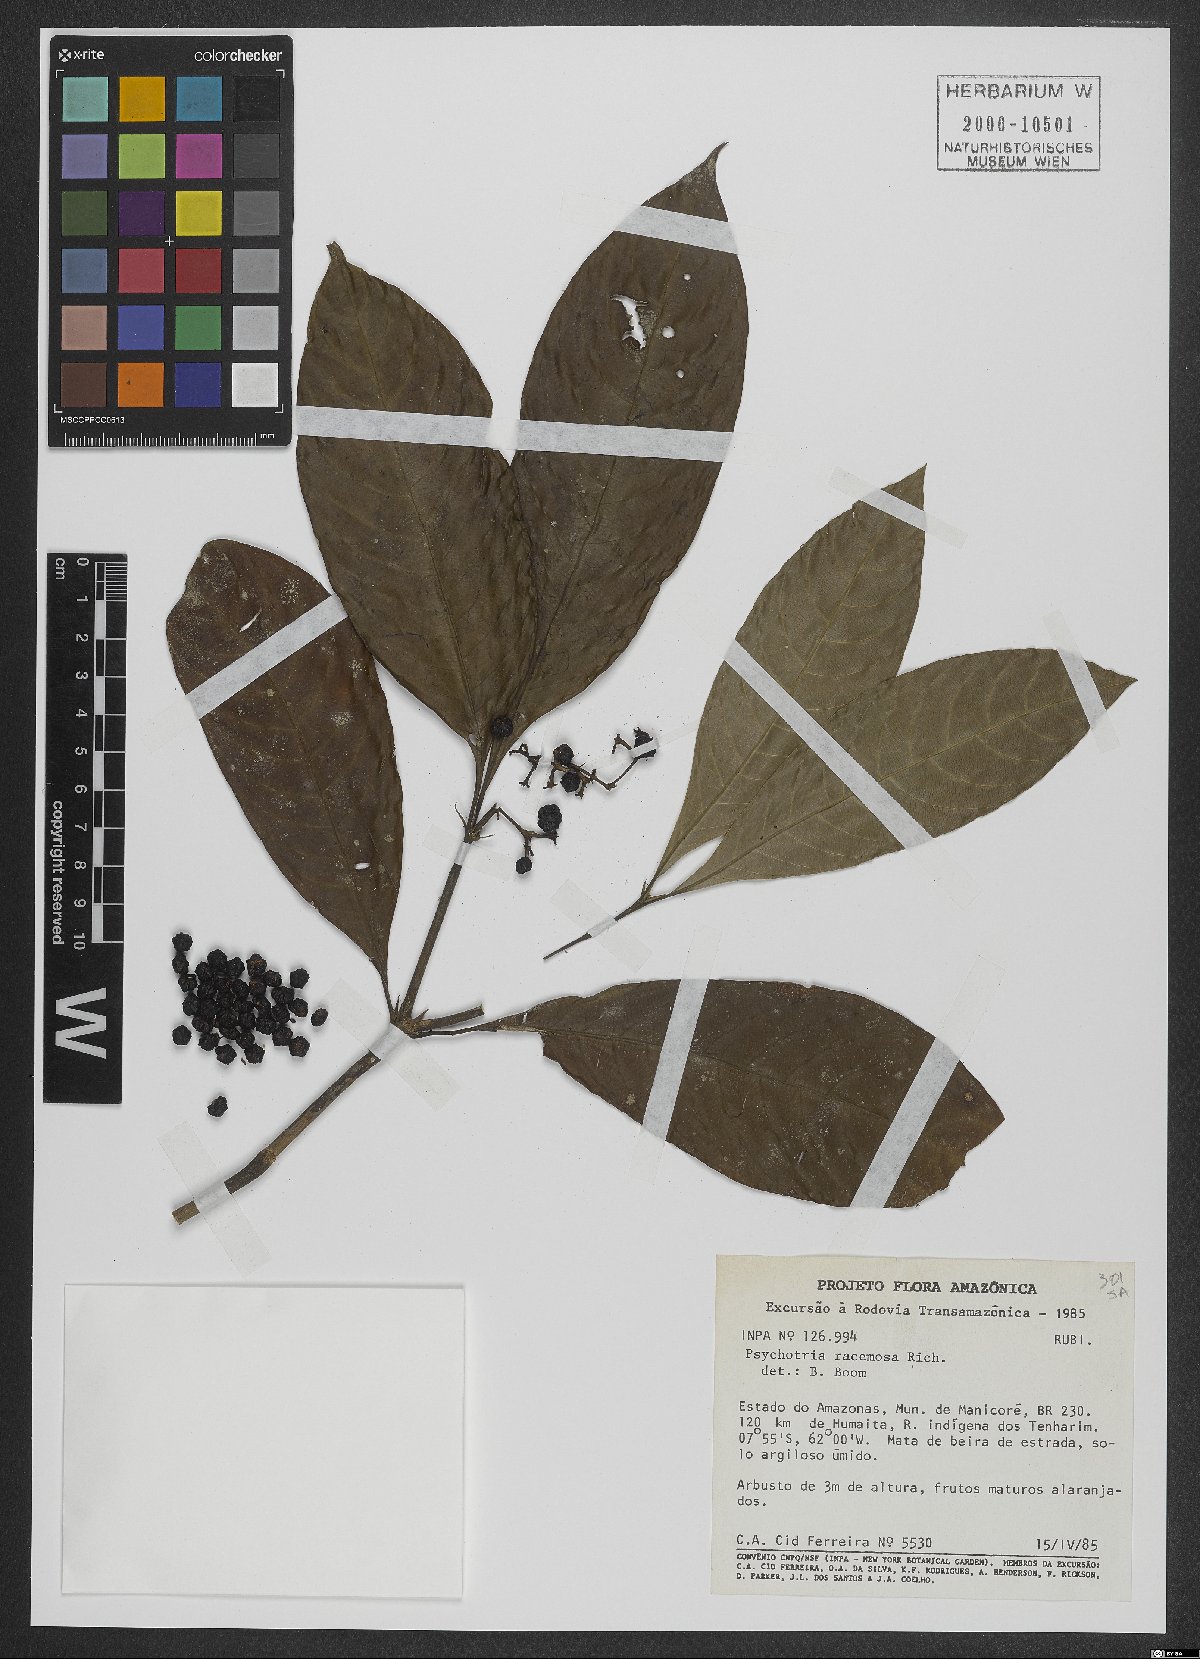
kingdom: Plantae
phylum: Tracheophyta
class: Magnoliopsida
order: Gentianales
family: Rubiaceae
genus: Palicourea
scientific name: Palicourea racemosa
